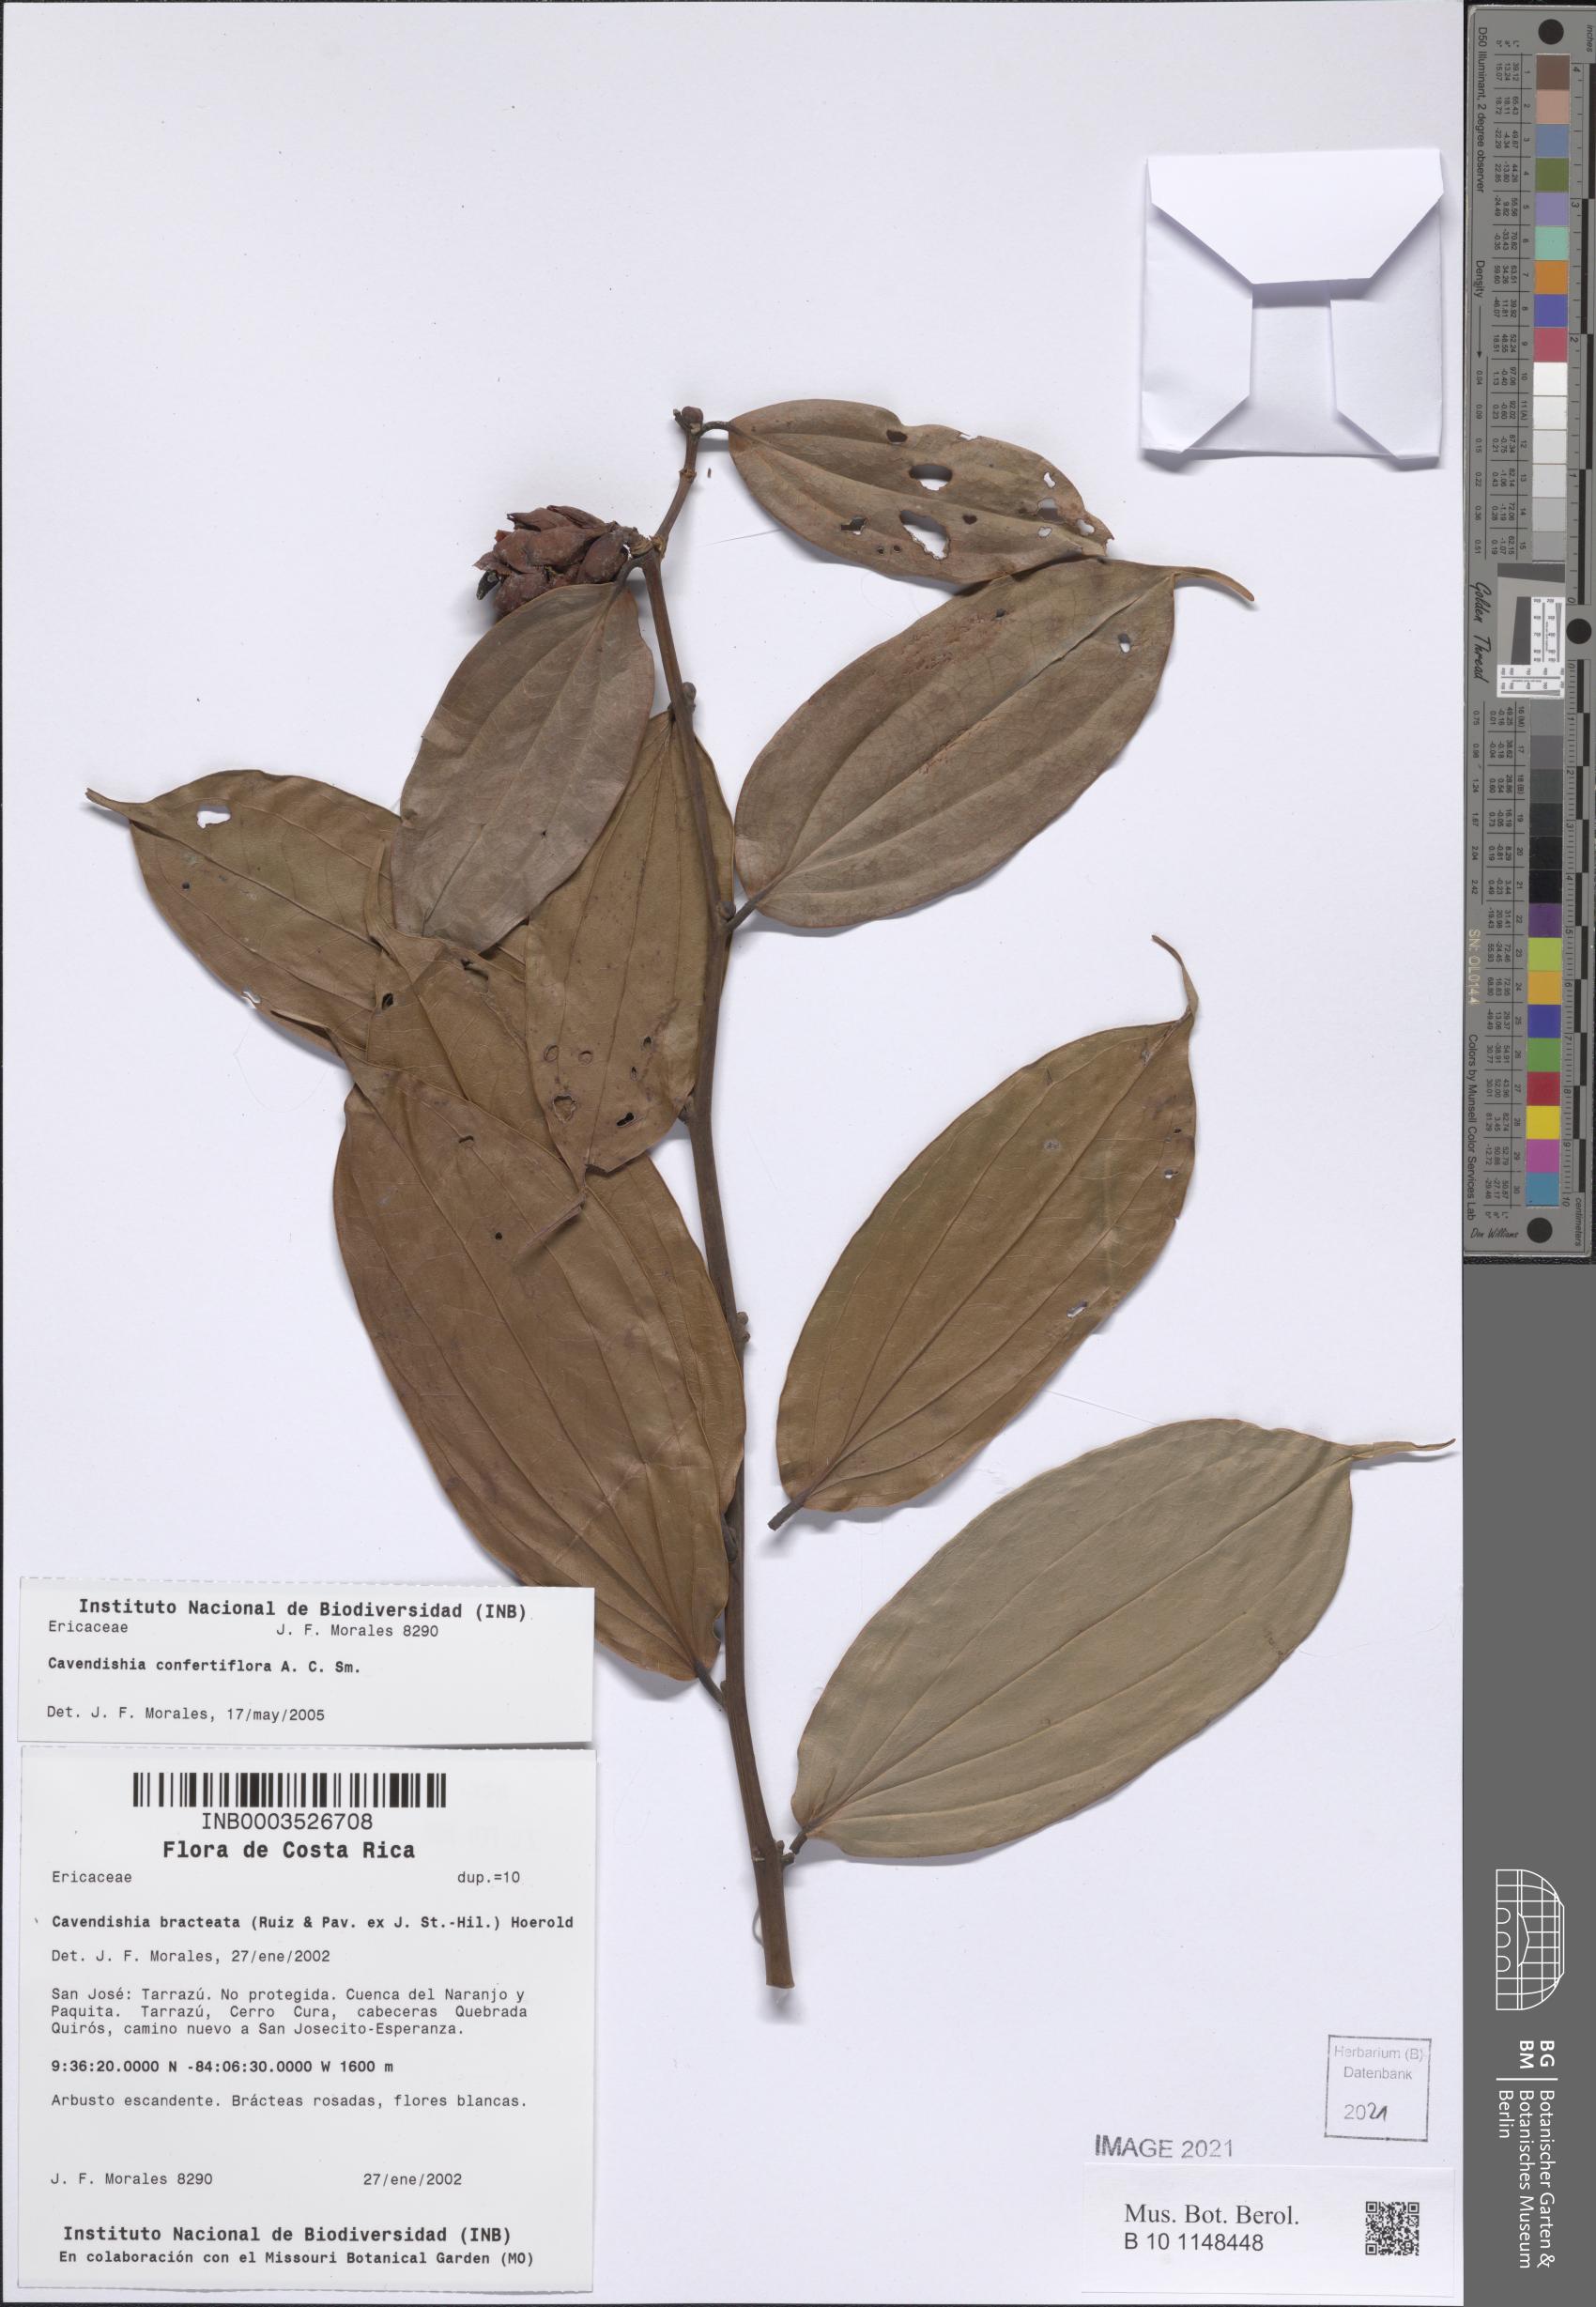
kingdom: Plantae
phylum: Tracheophyta
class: Magnoliopsida
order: Ericales
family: Ericaceae
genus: Cavendishia
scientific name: Cavendishia confertiflora
